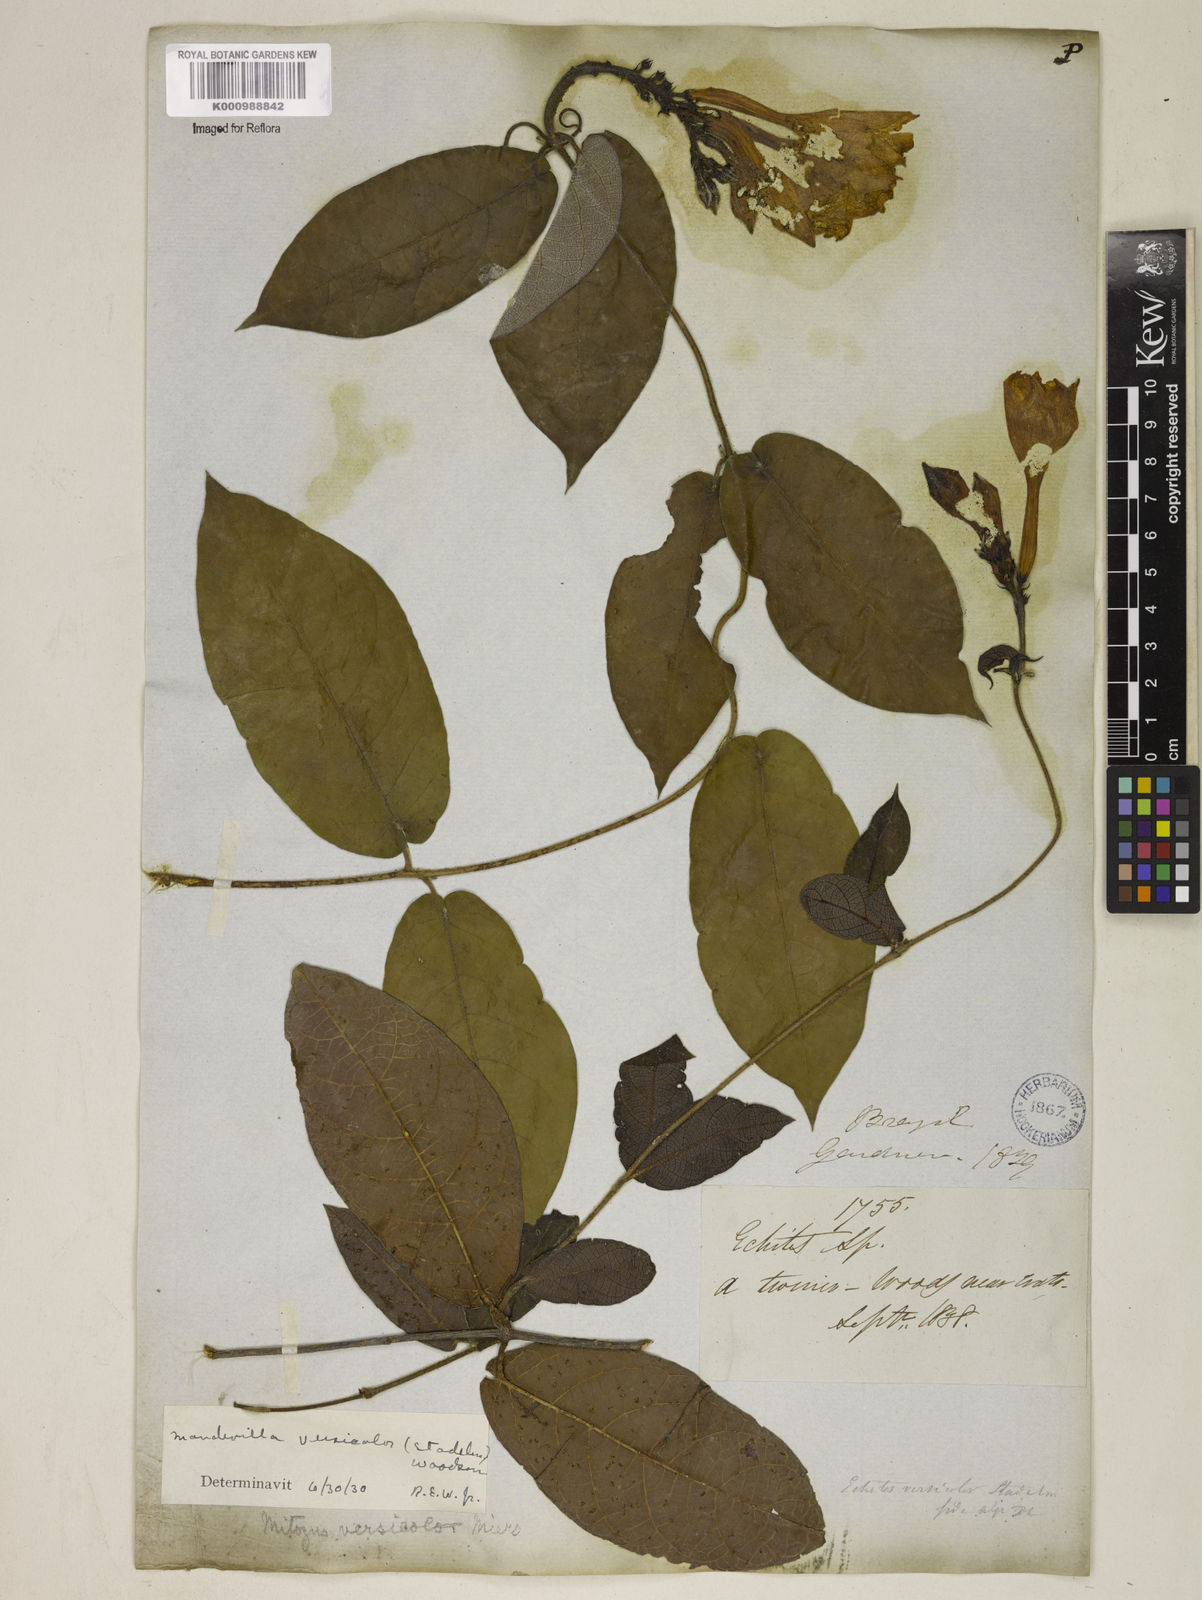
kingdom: Plantae
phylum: Tracheophyta
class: Magnoliopsida
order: Gentianales
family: Apocynaceae
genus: Mandevilla
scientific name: Mandevilla scabra
